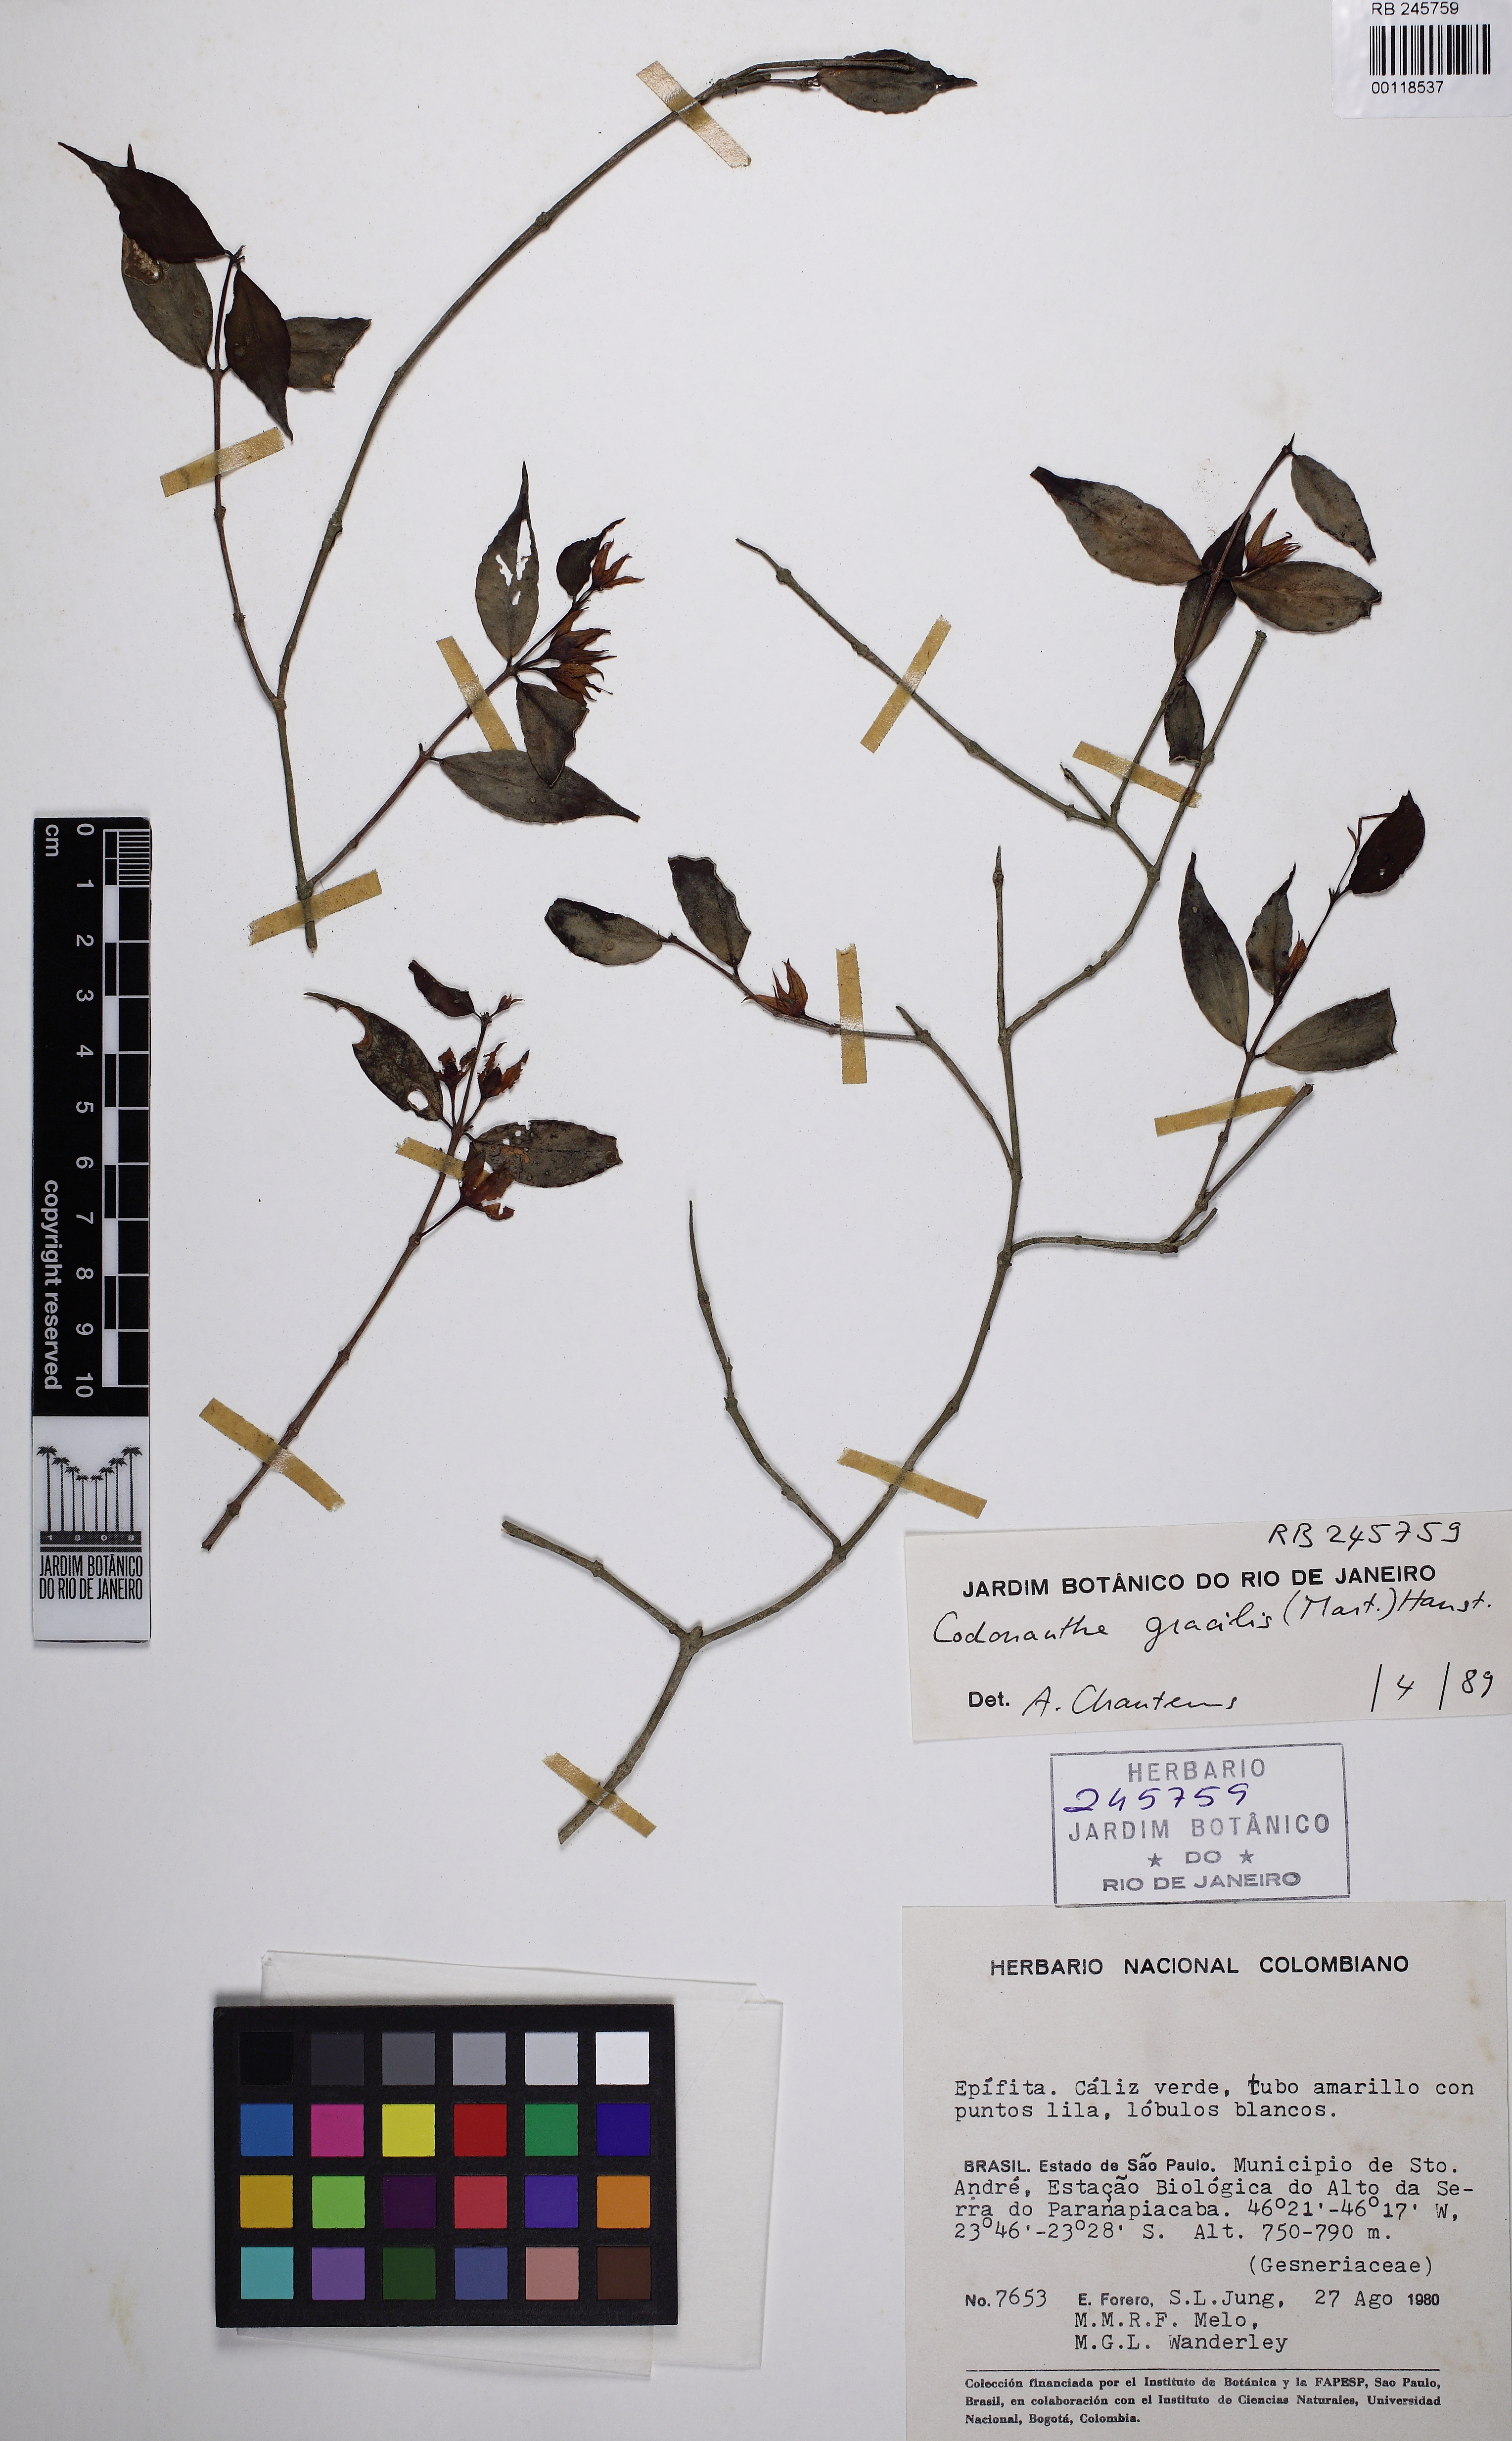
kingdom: Plantae
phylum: Tracheophyta
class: Magnoliopsida
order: Lamiales
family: Gesneriaceae
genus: Codonanthe
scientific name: Codonanthe gracilis
